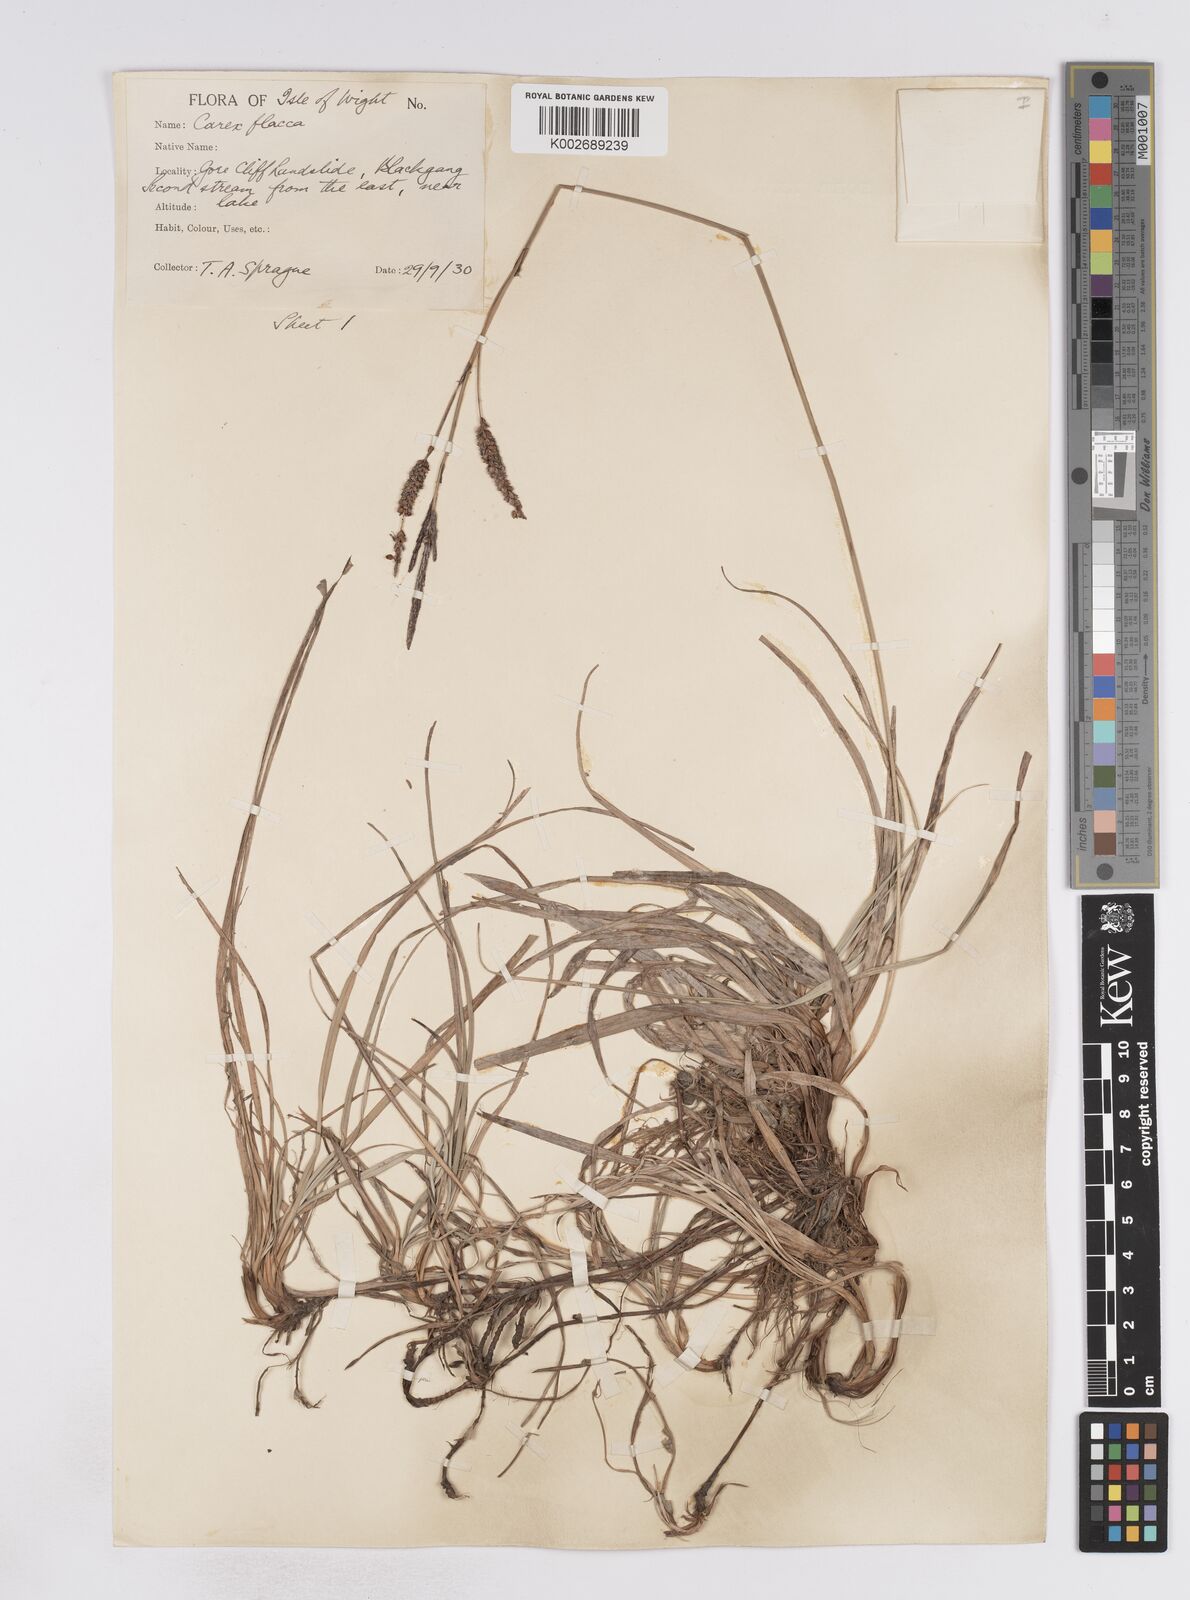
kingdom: Plantae
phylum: Tracheophyta
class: Liliopsida
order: Poales
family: Cyperaceae
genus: Carex
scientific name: Carex flacca
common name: Glaucous sedge
